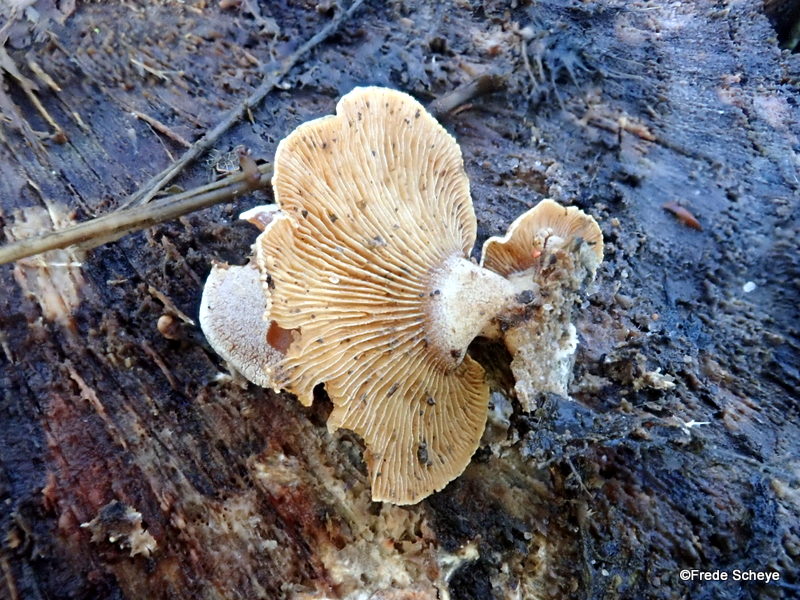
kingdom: Fungi
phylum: Basidiomycota
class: Agaricomycetes
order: Agaricales
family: Mycenaceae
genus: Panellus
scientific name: Panellus stipticus
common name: kliddet epaulethat
